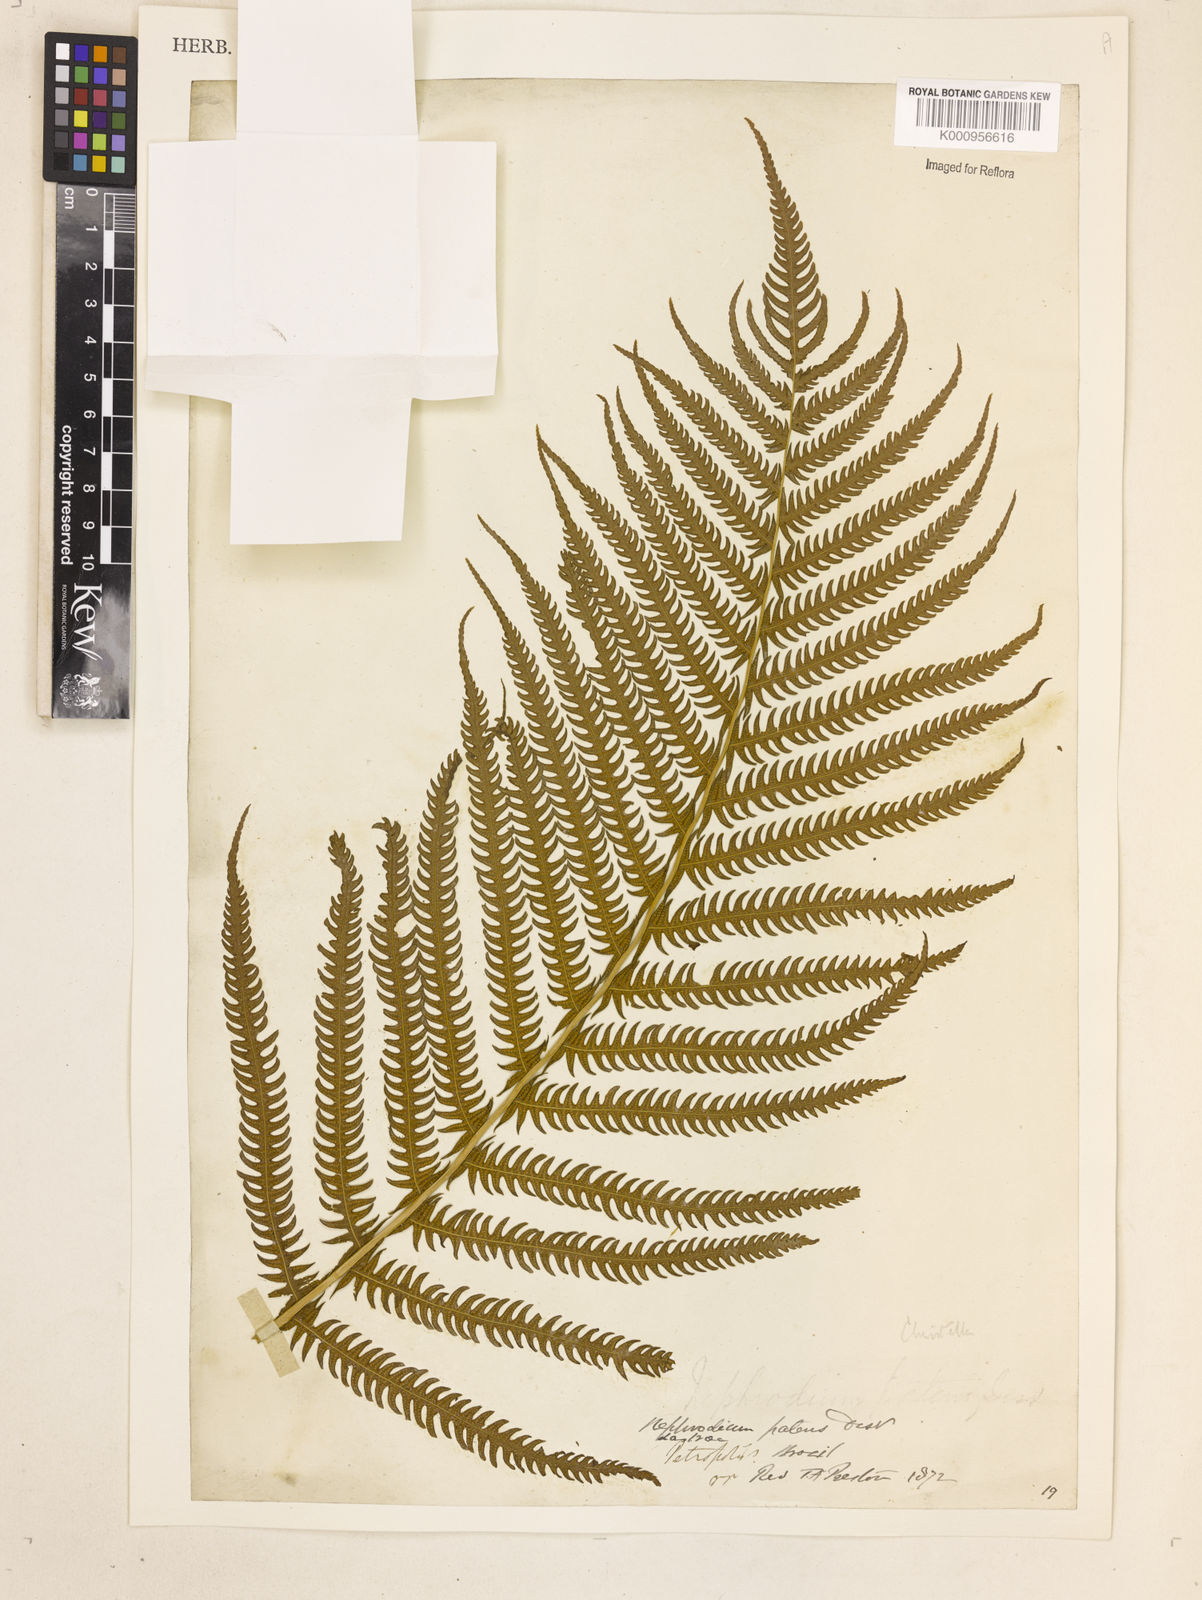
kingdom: Plantae
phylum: Tracheophyta
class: Polypodiopsida
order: Polypodiales
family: Thelypteridaceae
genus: Christella
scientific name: Christella
